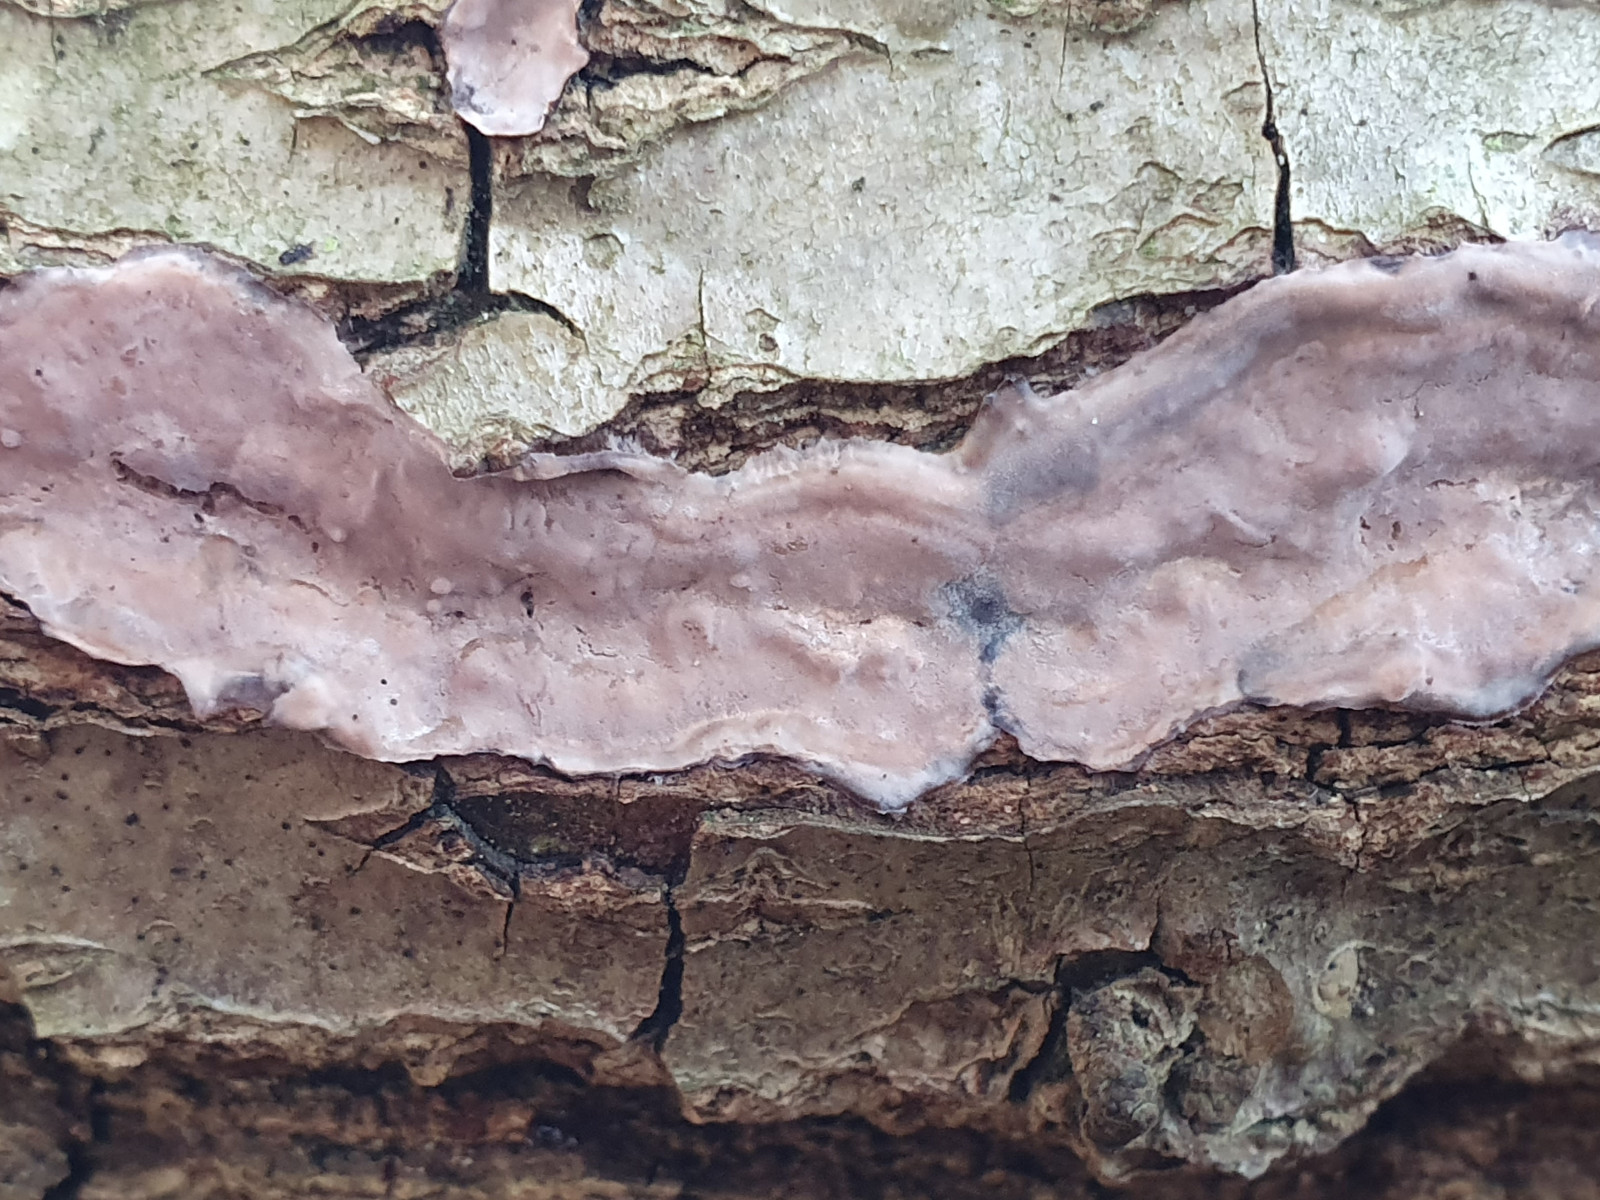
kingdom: Fungi
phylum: Basidiomycota
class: Agaricomycetes
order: Russulales
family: Peniophoraceae
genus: Peniophora
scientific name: Peniophora quercina
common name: ege-voksskind
